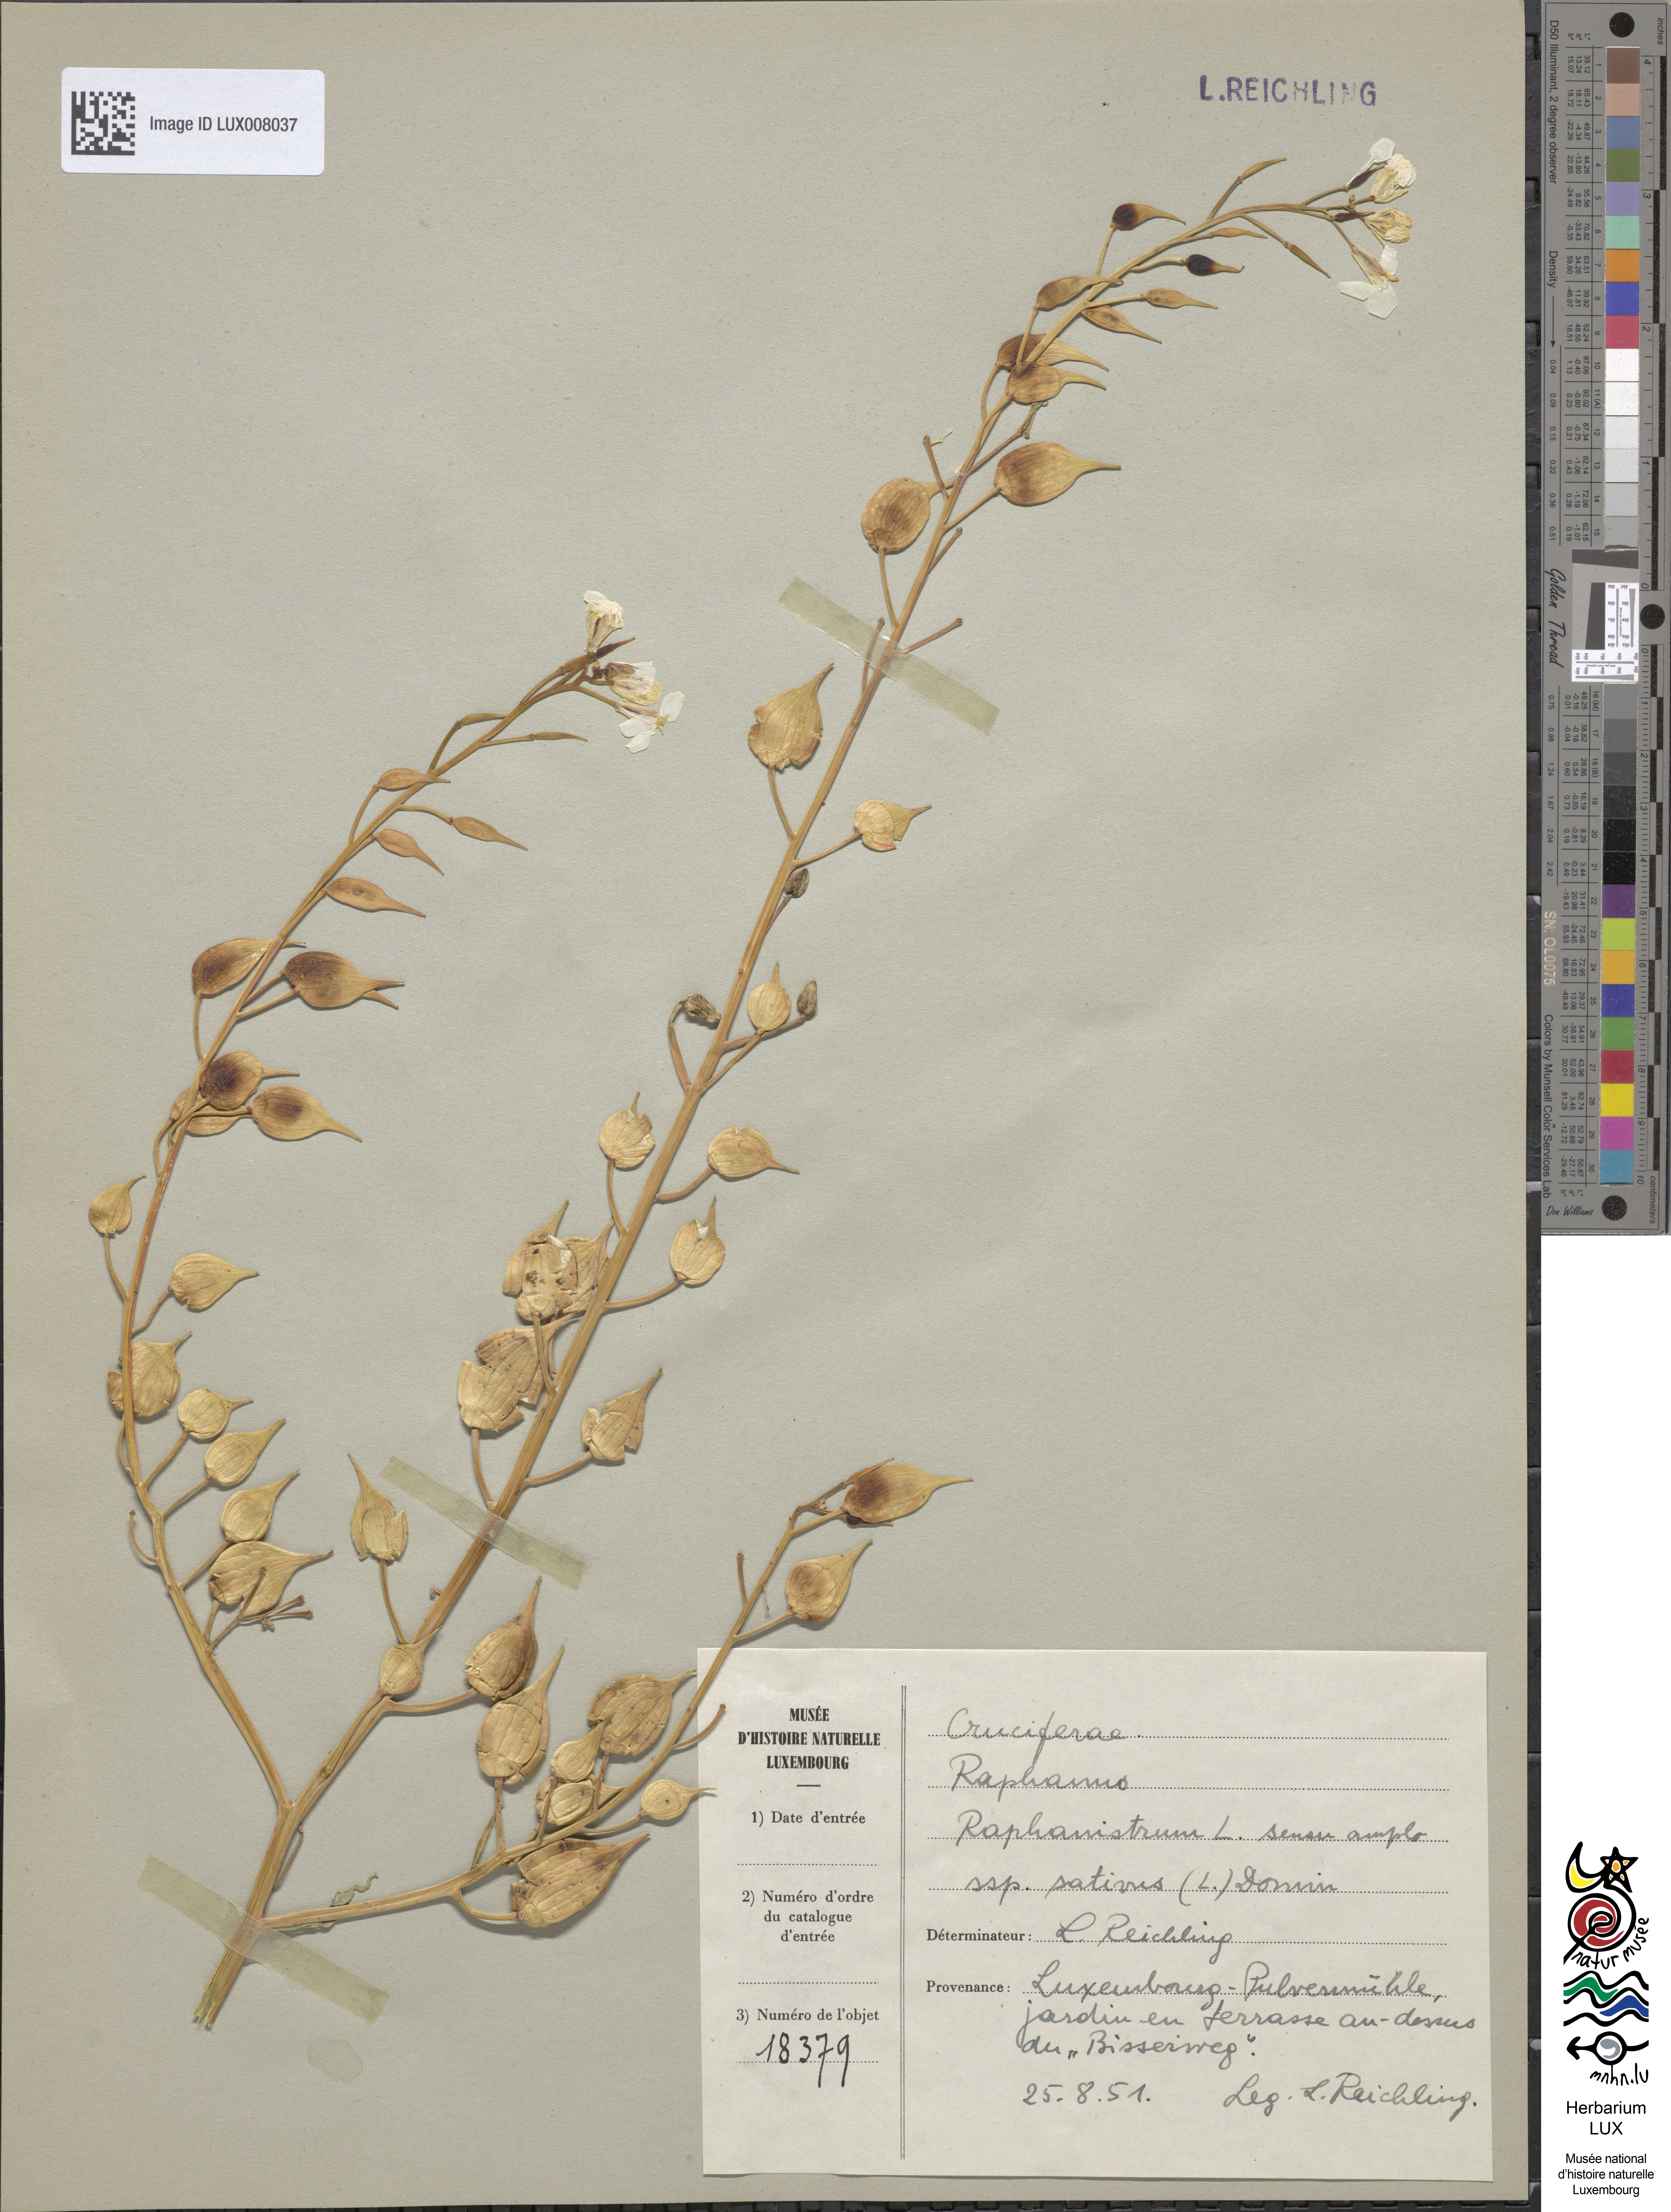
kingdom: Plantae
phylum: Tracheophyta
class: Magnoliopsida
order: Brassicales
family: Brassicaceae
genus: Raphanus
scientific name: Raphanus sativus
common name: Cultivated radish
